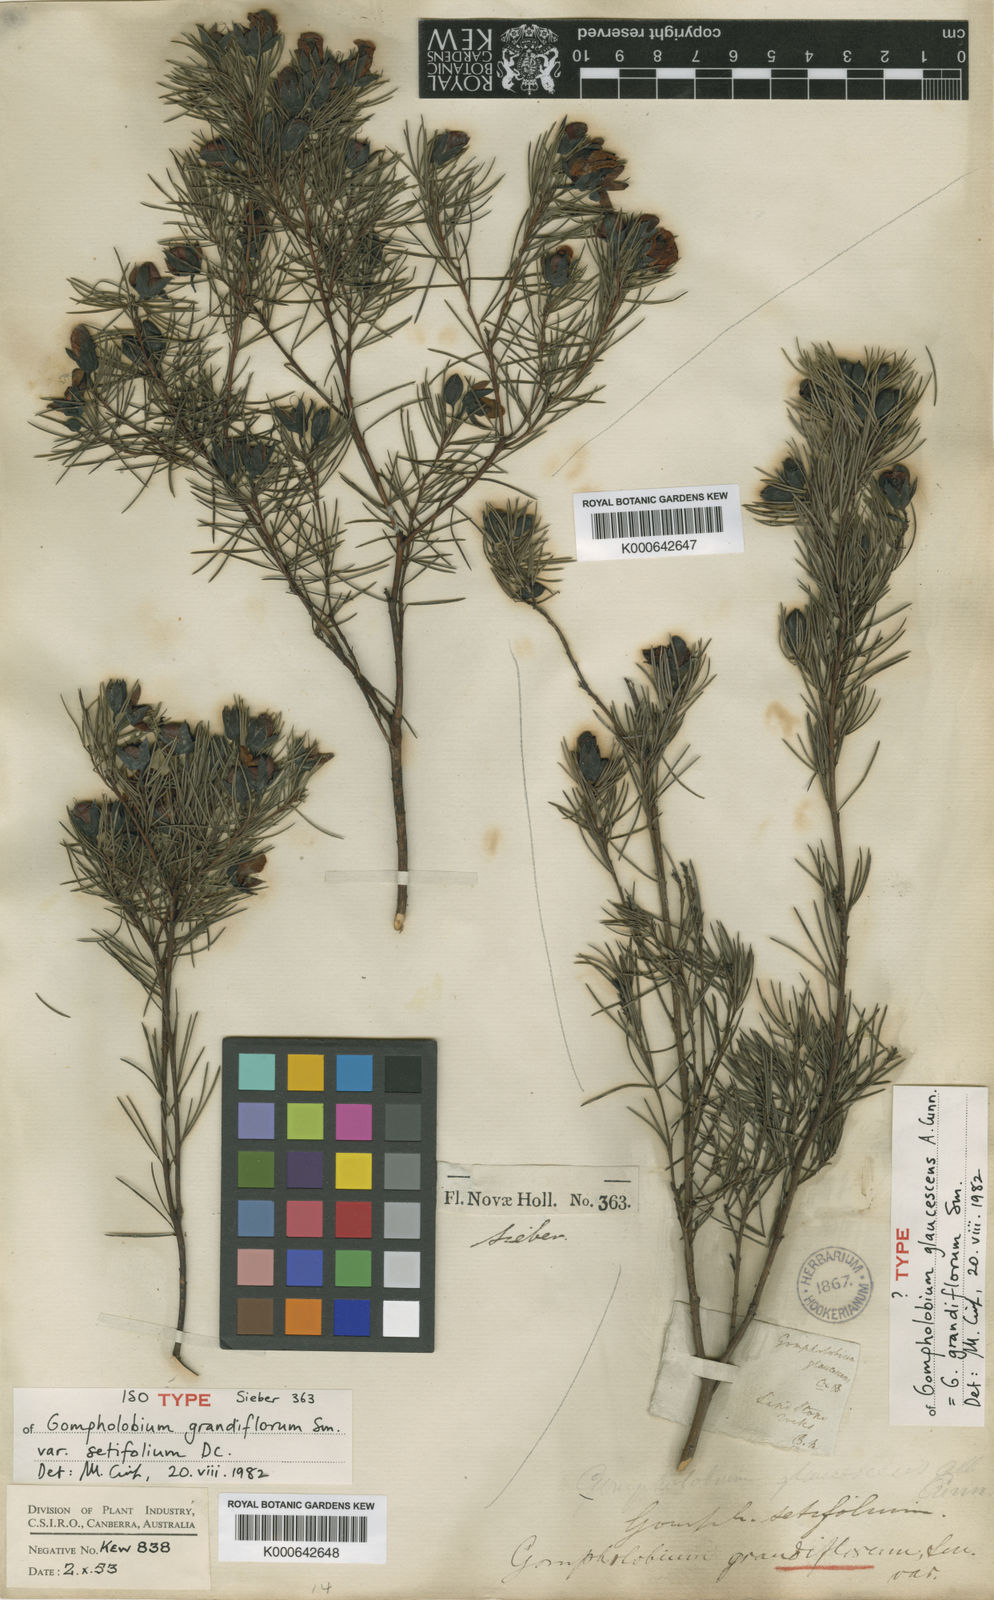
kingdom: Plantae
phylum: Tracheophyta
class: Magnoliopsida
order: Fabales
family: Fabaceae
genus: Gompholobium
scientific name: Gompholobium grandiflorum
